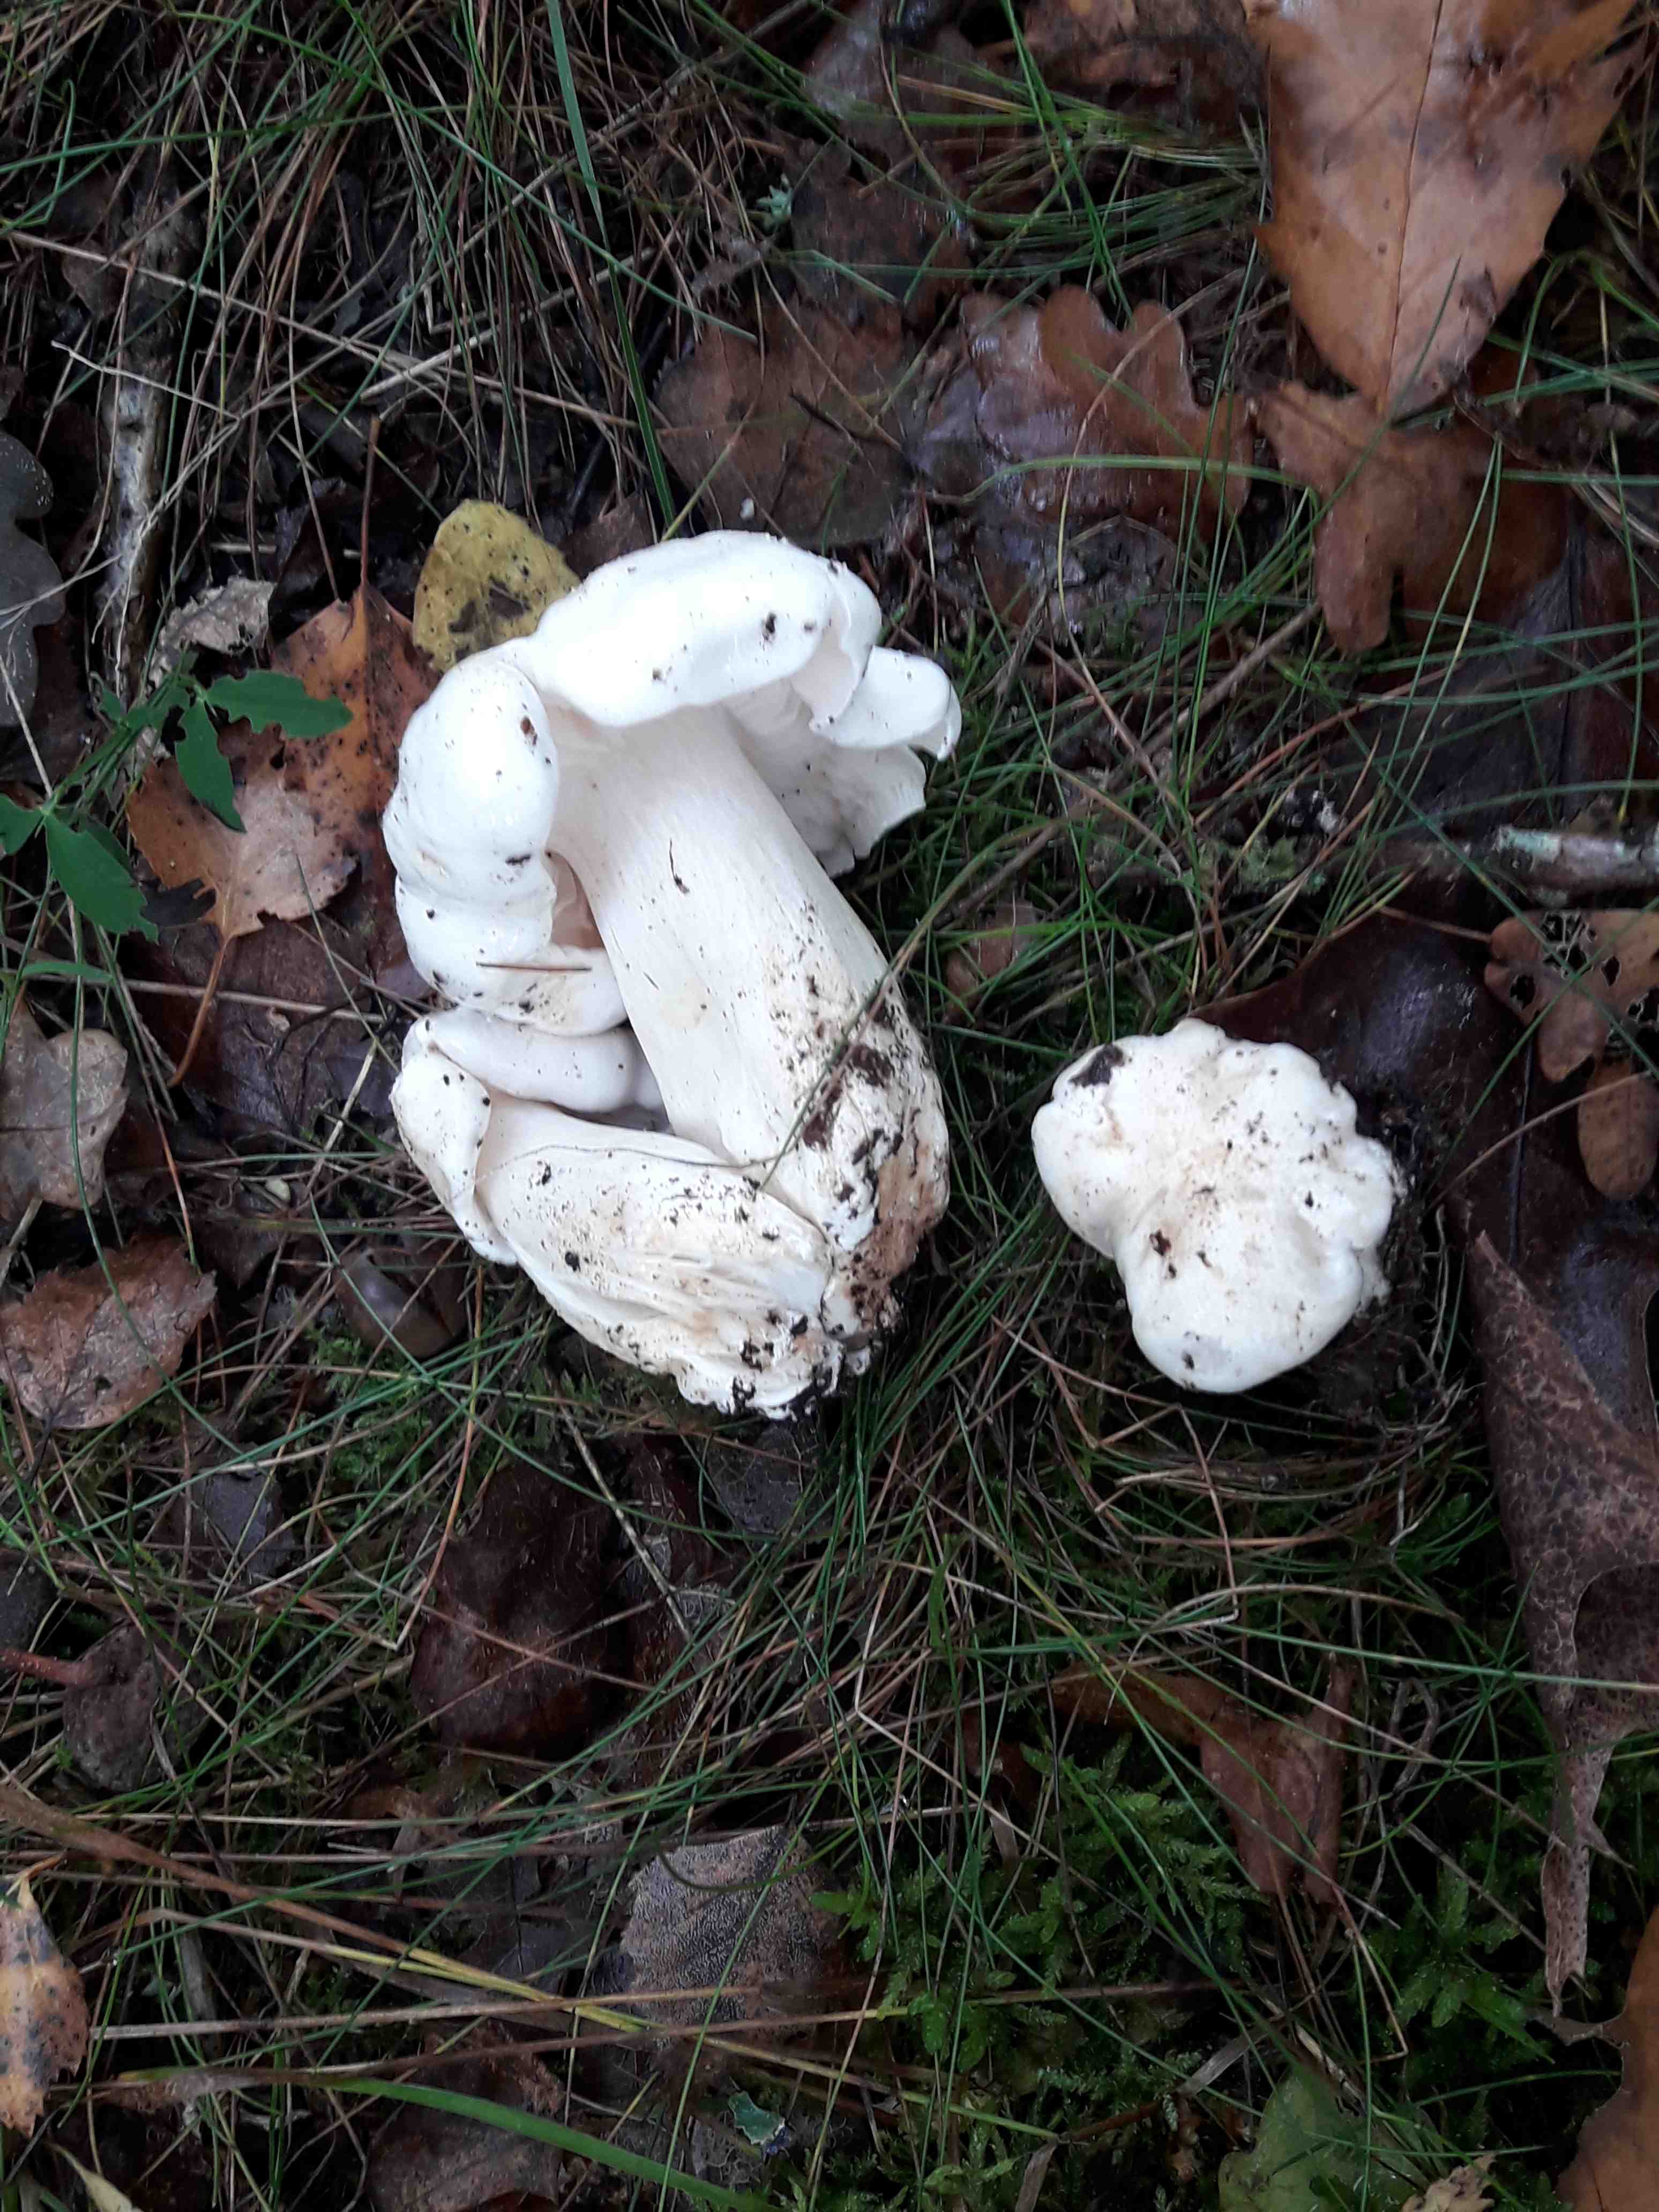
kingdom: Fungi
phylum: Basidiomycota
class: Agaricomycetes
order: Agaricales
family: Tricholomataceae
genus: Tricholoma
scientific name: Tricholoma columbetta
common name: silke-ridderhat
